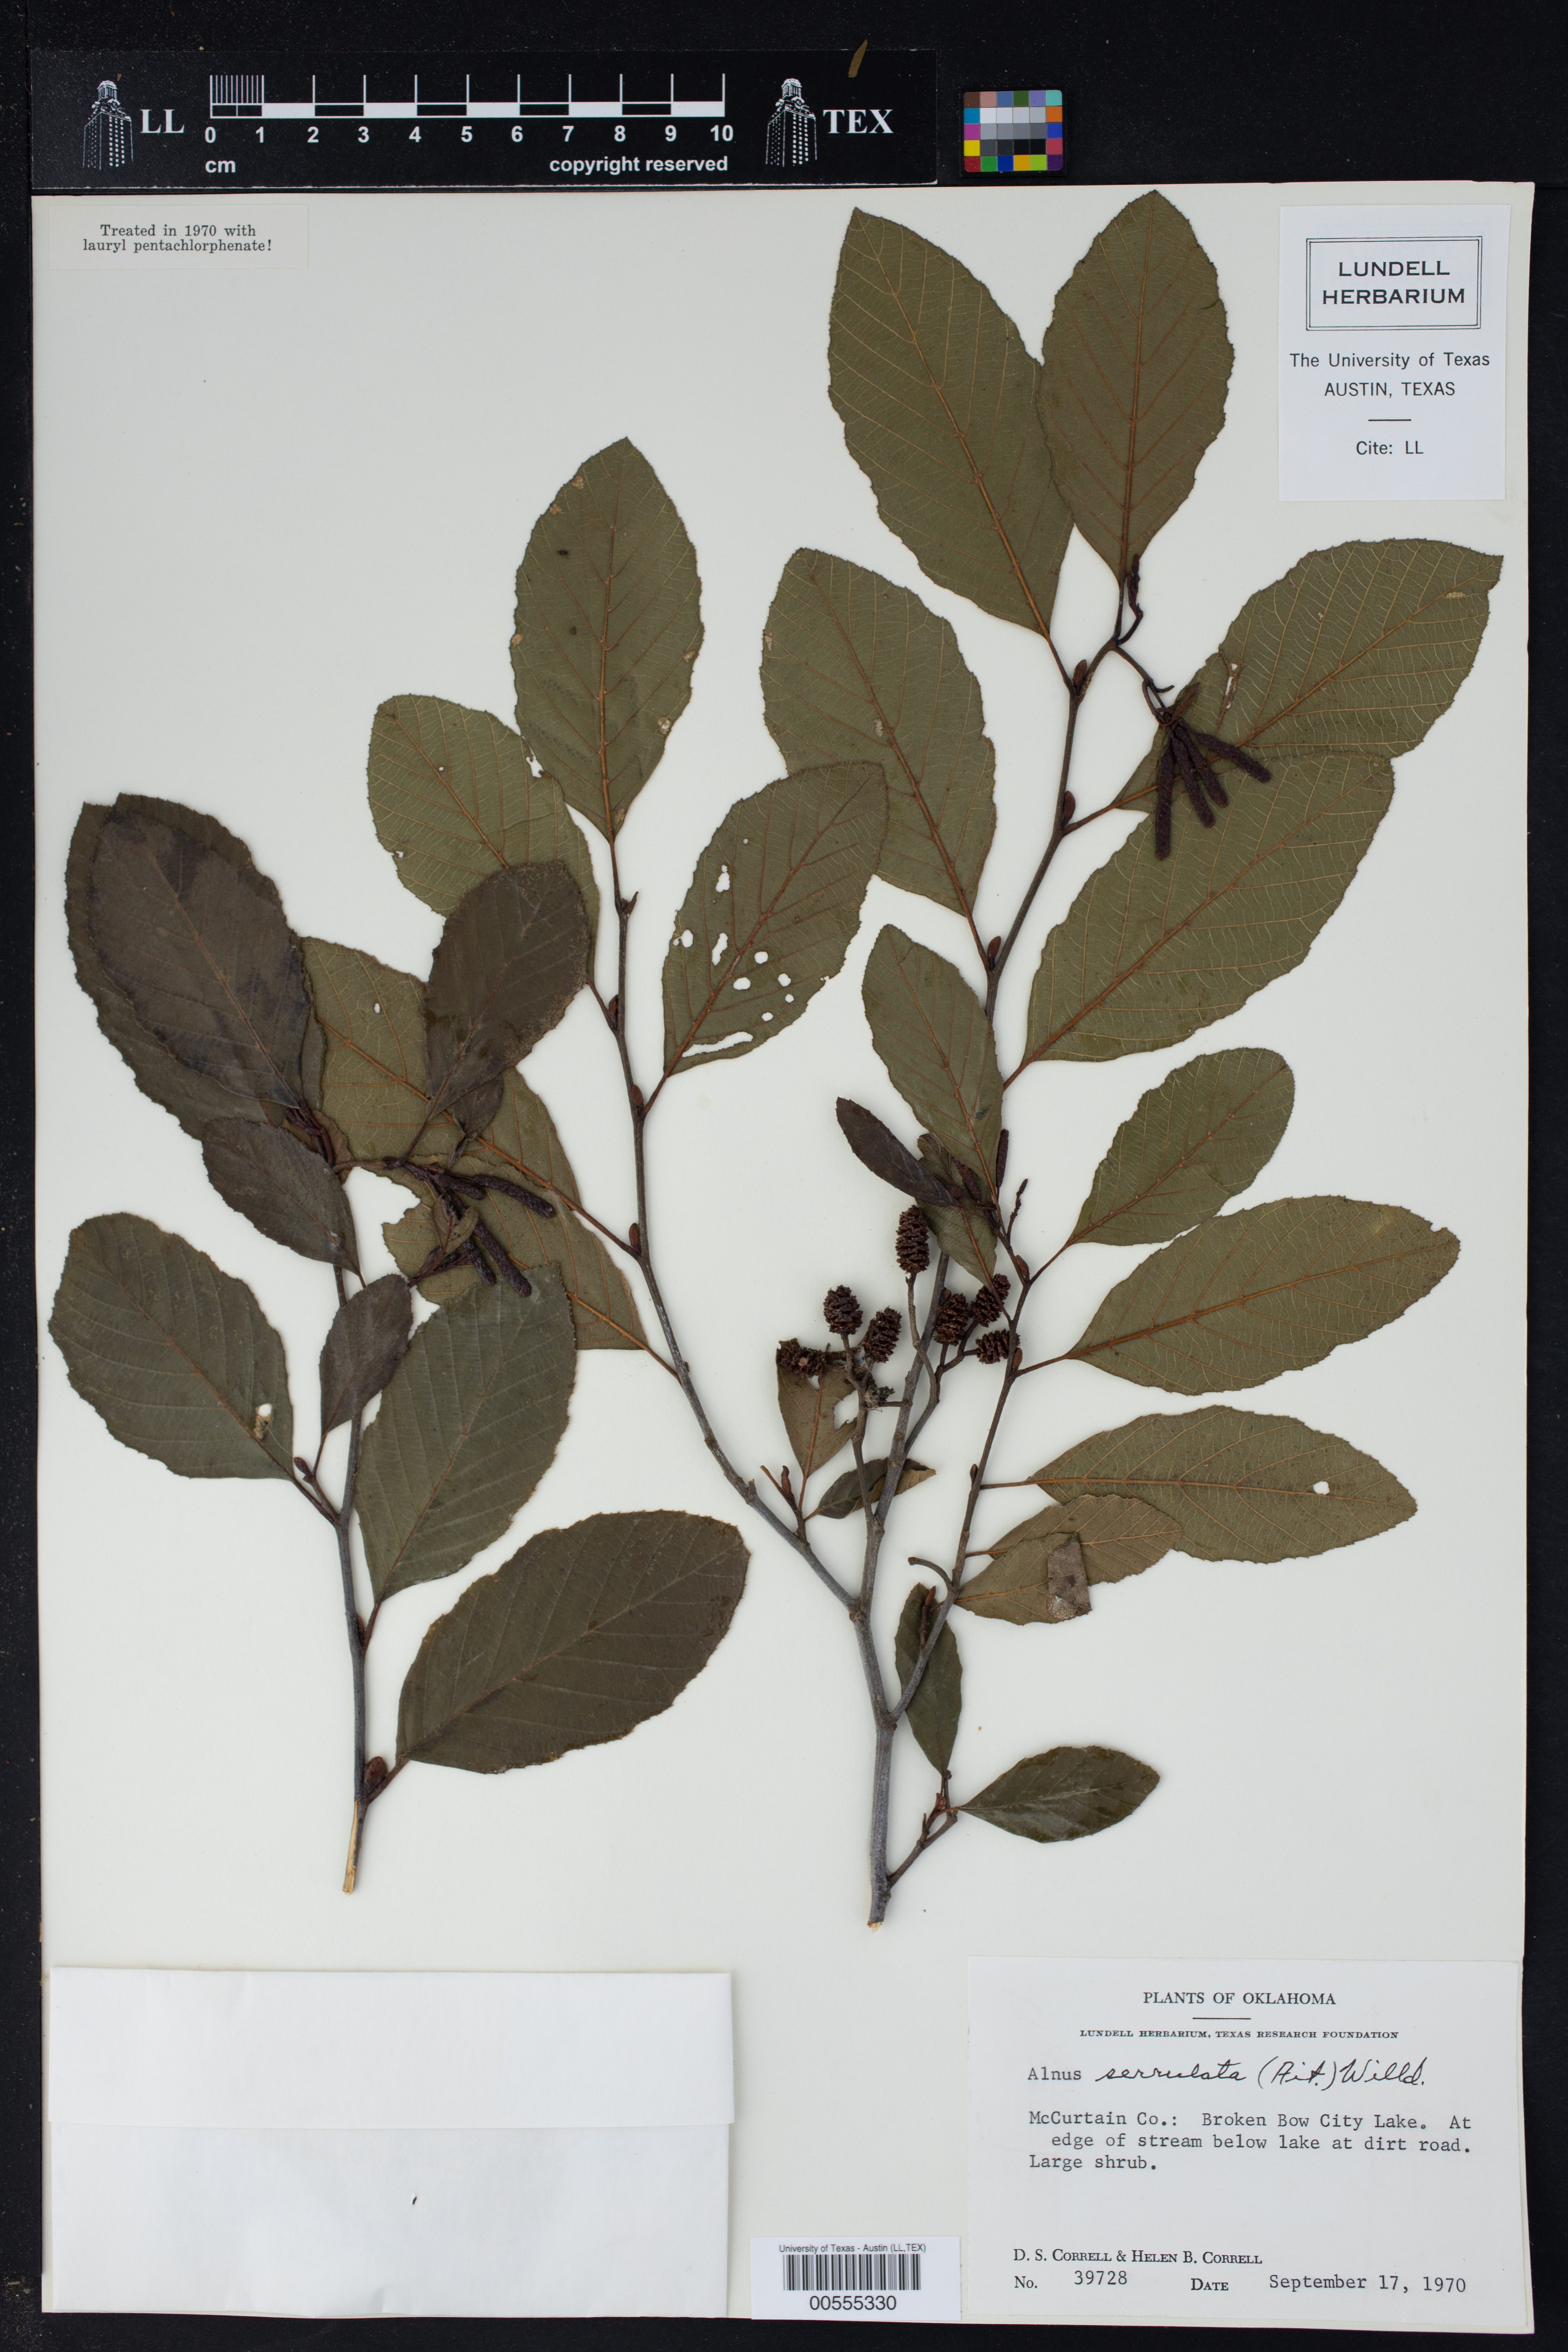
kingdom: Plantae
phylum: Tracheophyta
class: Magnoliopsida
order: Fagales
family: Betulaceae
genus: Alnus
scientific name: Alnus serrulata
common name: Hazel alder
